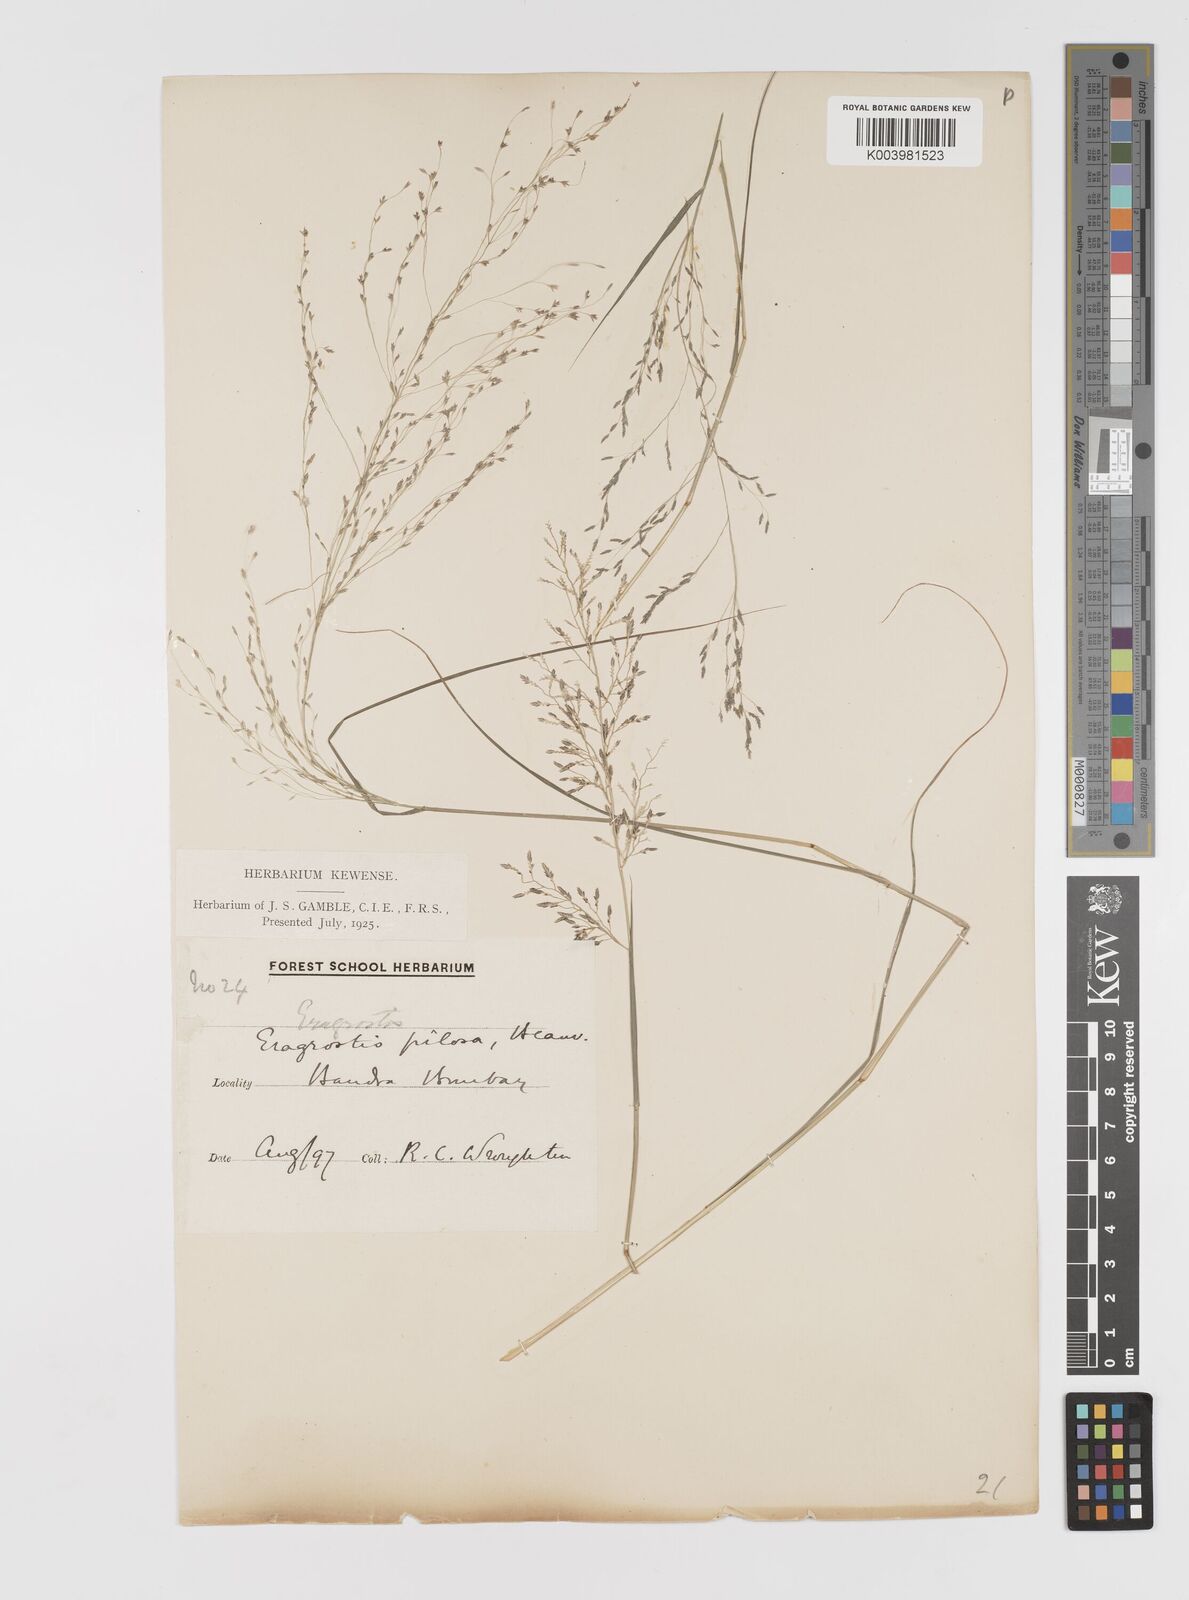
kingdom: Plantae
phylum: Tracheophyta
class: Liliopsida
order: Poales
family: Poaceae
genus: Eragrostis
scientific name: Eragrostis pilosa
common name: Indian lovegrass
